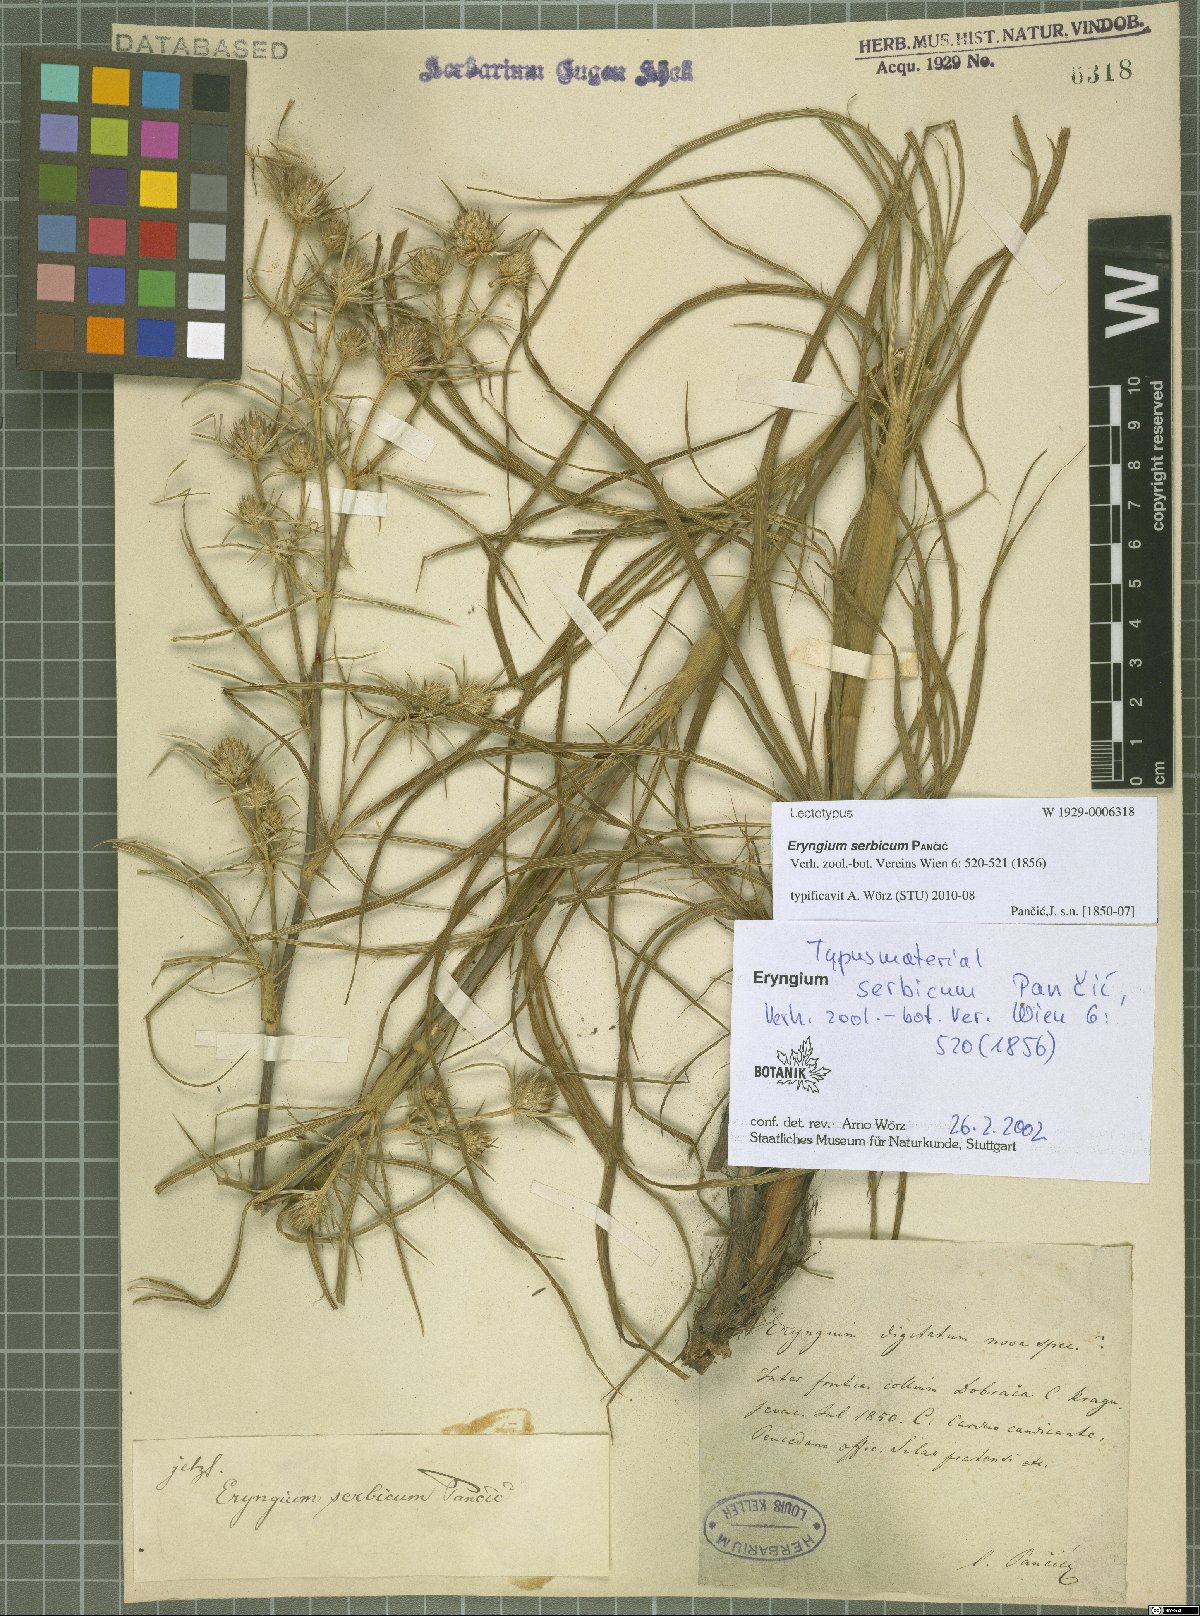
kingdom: Plantae
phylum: Tracheophyta
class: Magnoliopsida
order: Apiales
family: Apiaceae
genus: Eryngium
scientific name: Eryngium serbicum
